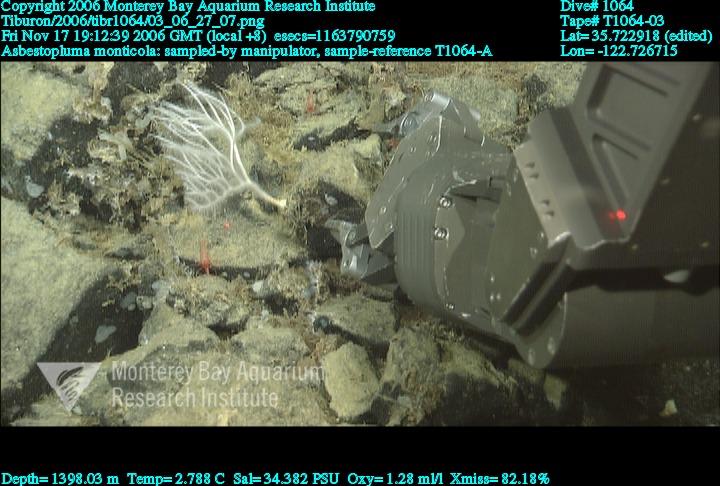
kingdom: Animalia
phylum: Porifera
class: Demospongiae
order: Poecilosclerida
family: Cladorhizidae
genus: Asbestopluma
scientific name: Asbestopluma monticola
